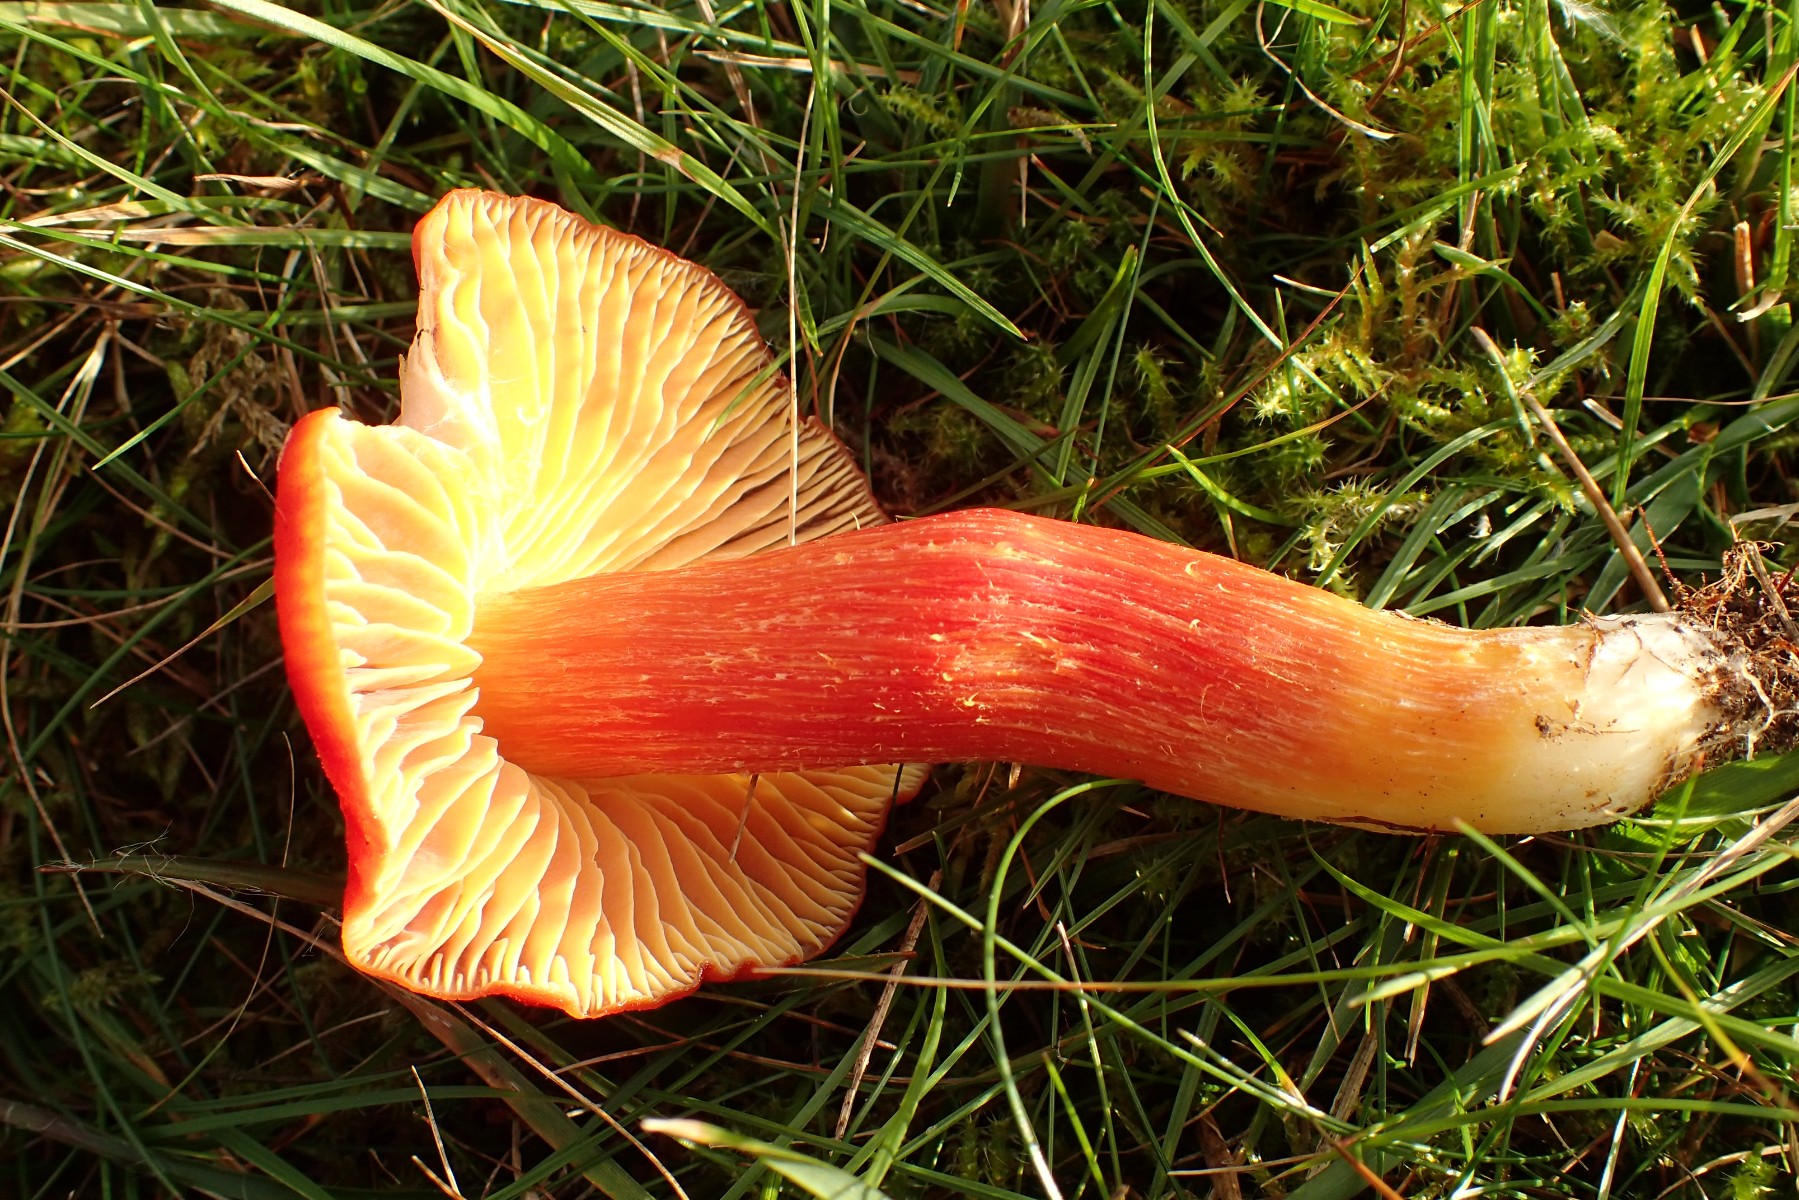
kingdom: Fungi
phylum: Basidiomycota
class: Agaricomycetes
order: Agaricales
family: Hygrophoraceae
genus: Hygrocybe
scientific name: Hygrocybe punicea
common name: skarlagen-vokshat
